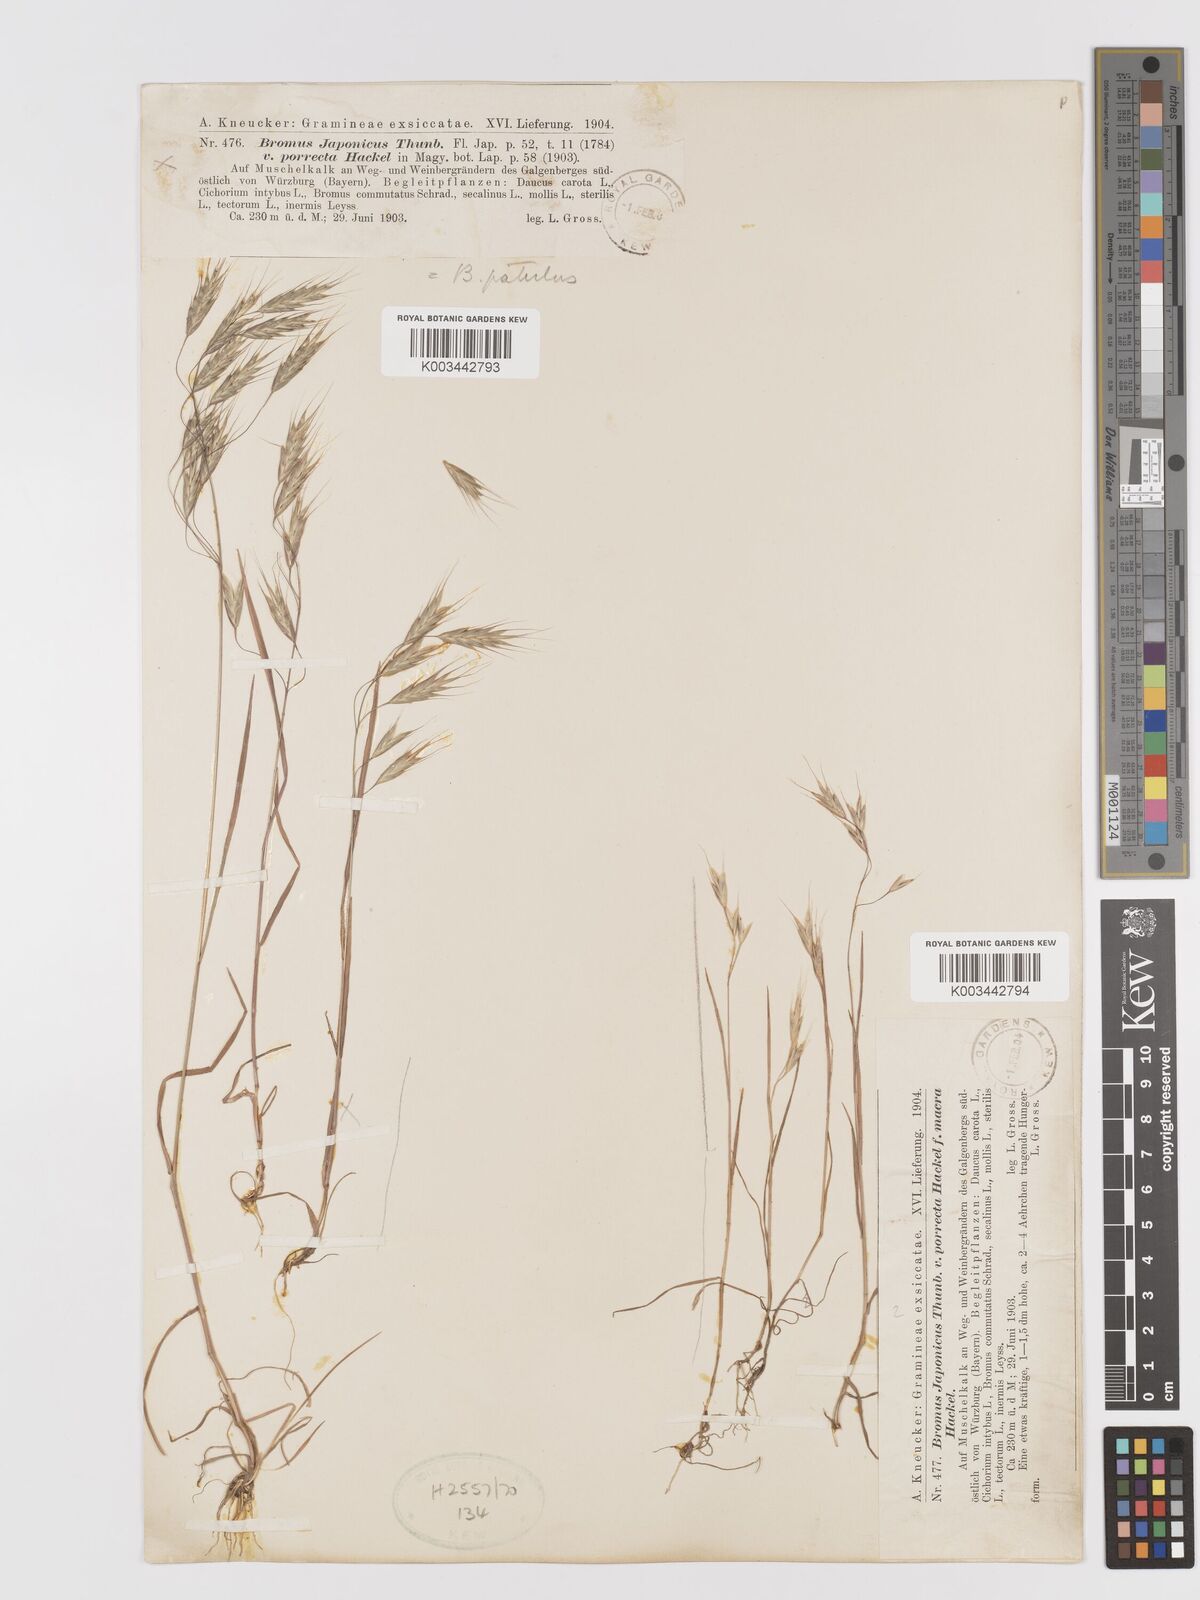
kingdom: Plantae
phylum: Tracheophyta
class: Liliopsida
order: Poales
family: Poaceae
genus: Bromus
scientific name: Bromus japonicus
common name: Japanese brome
